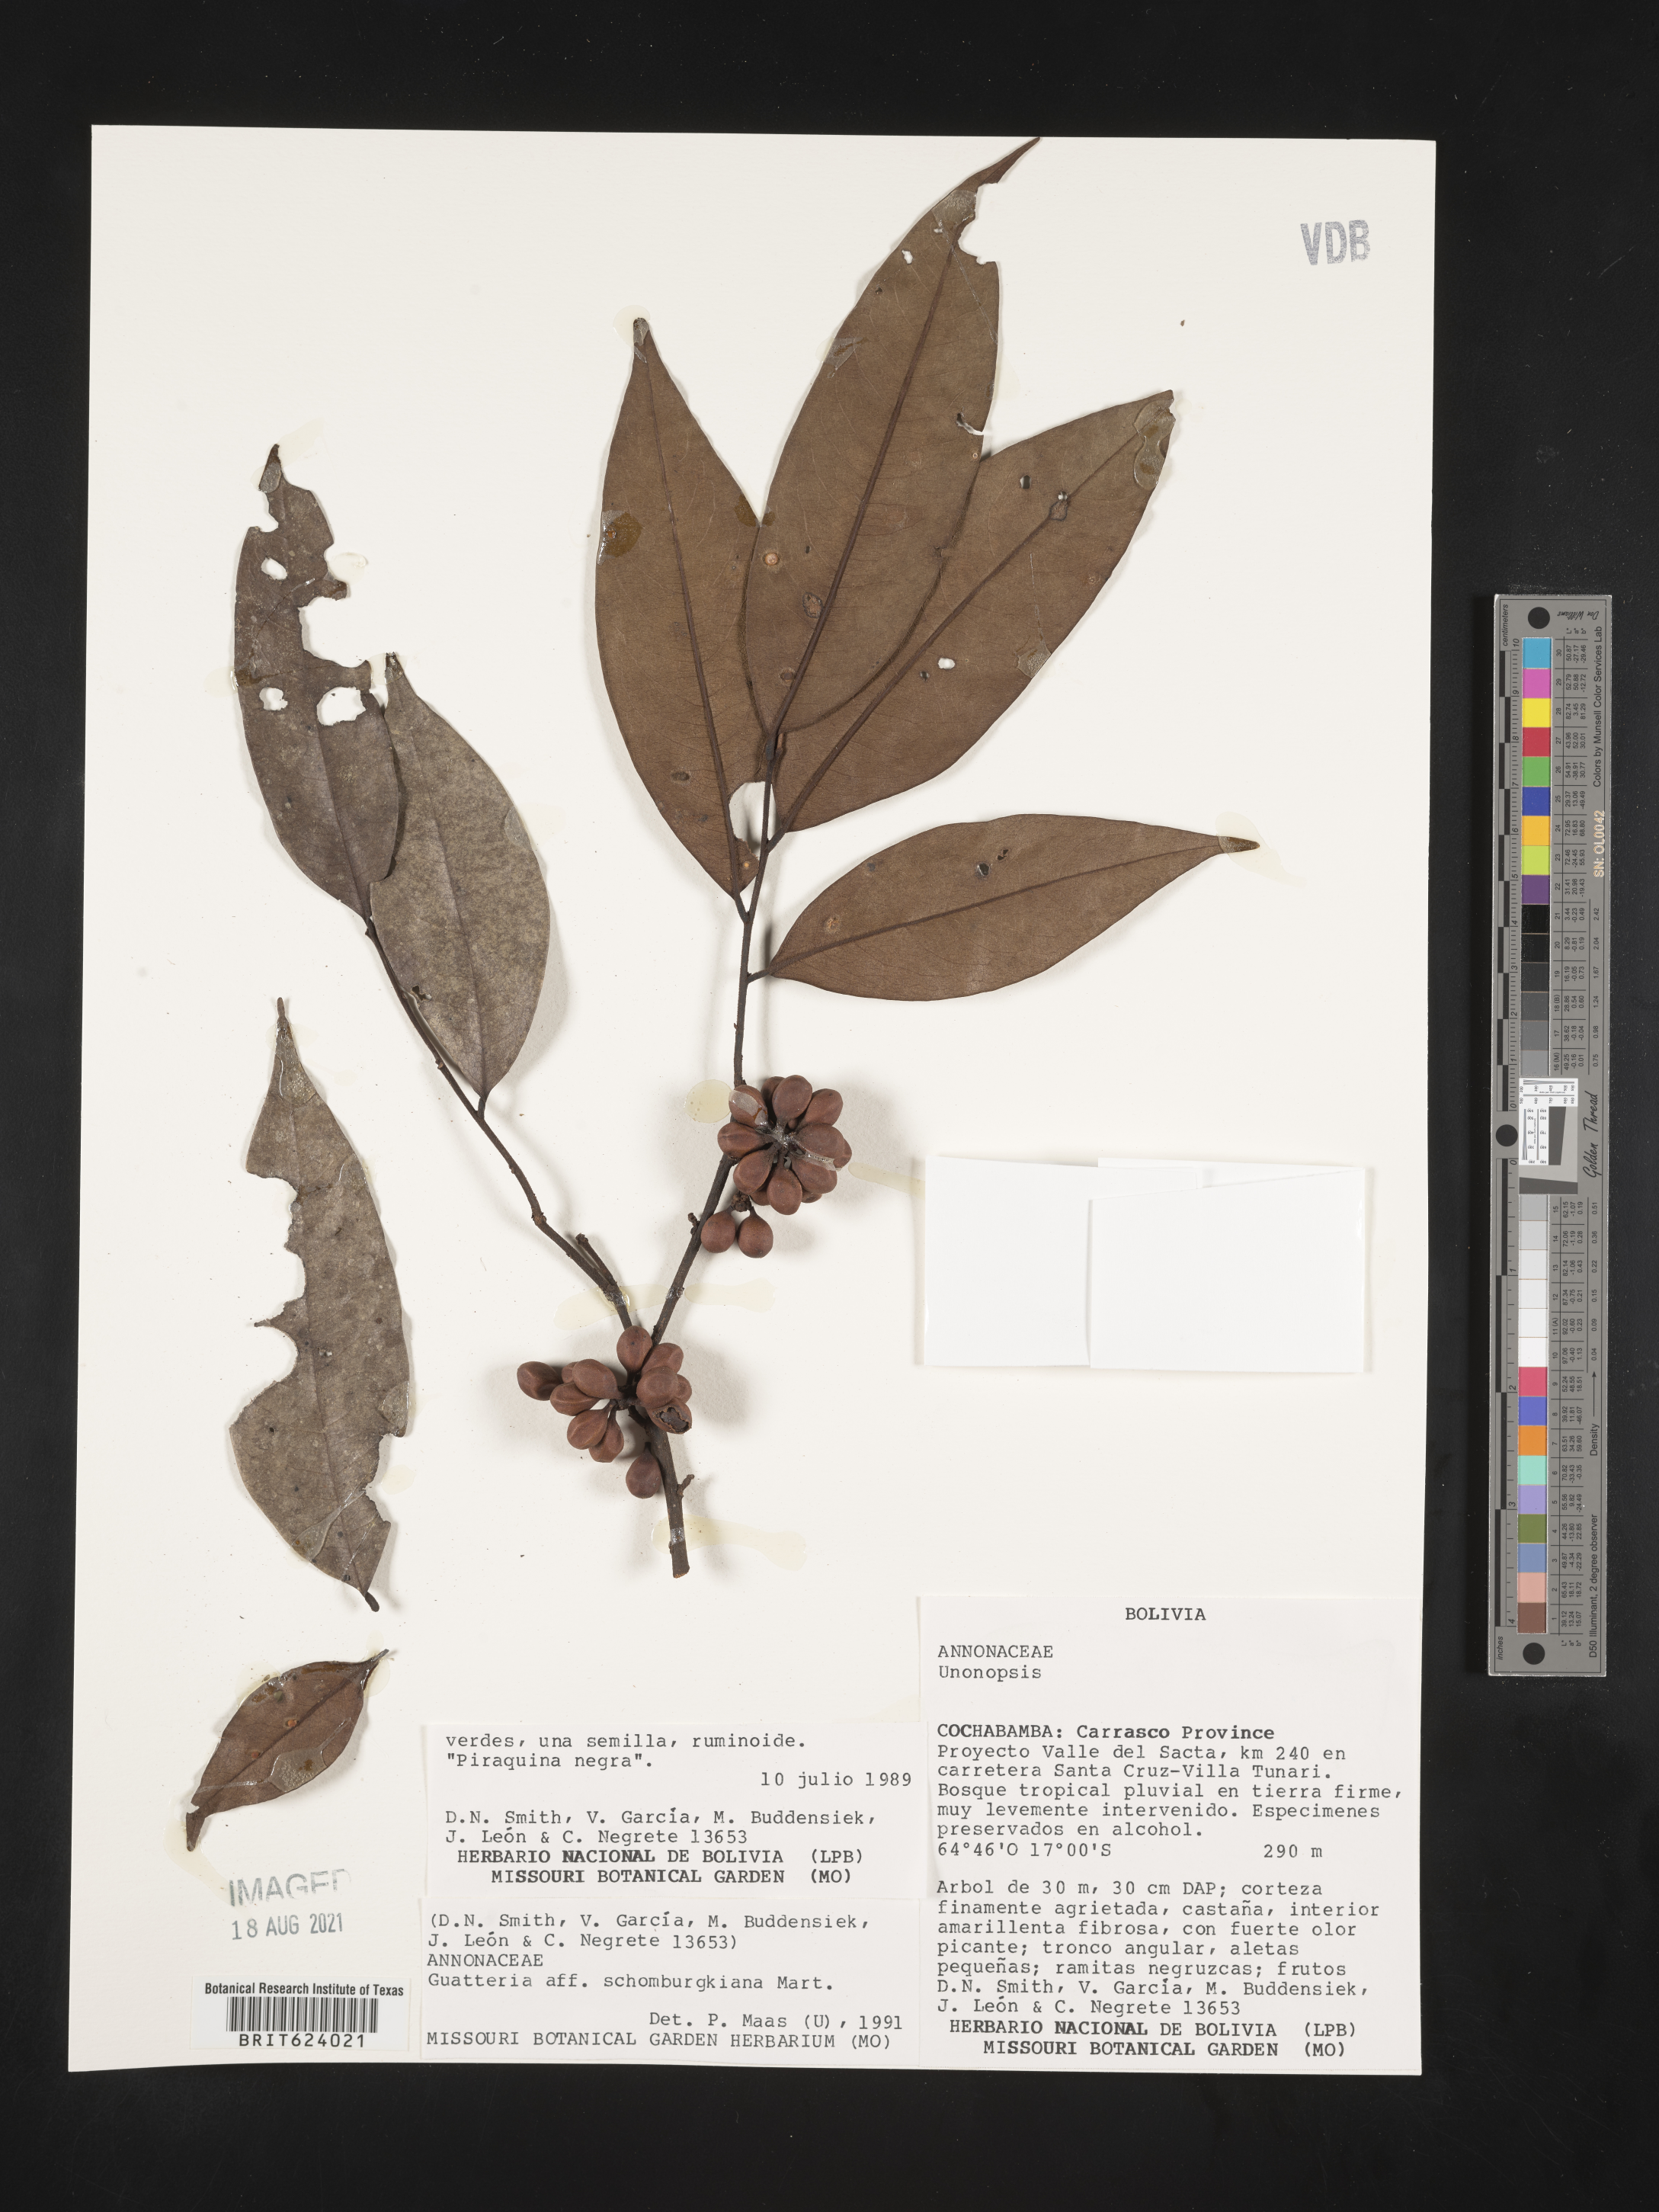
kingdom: Plantae
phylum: Tracheophyta
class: Magnoliopsida
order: Magnoliales
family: Annonaceae
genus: Guatteria
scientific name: Guatteria schomburgkiana
